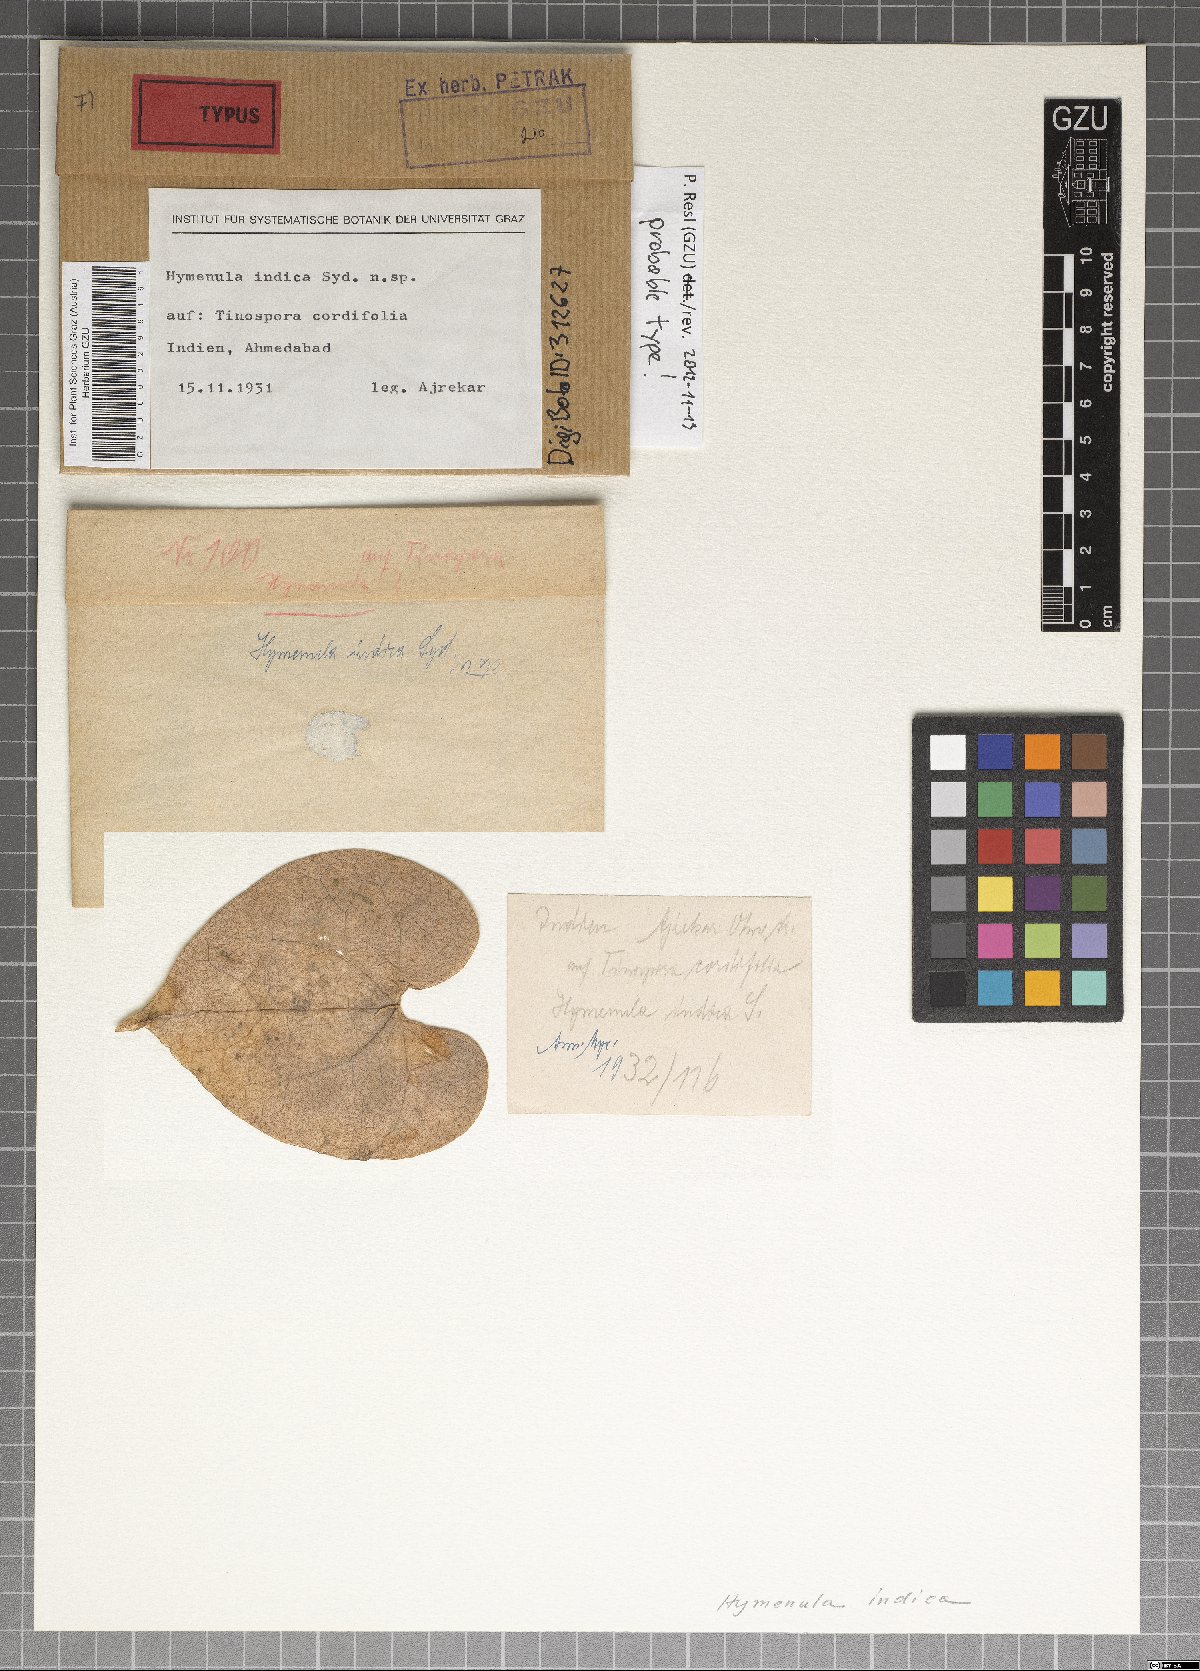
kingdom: Fungi
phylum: Ascomycota
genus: Hymenula
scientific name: Hymenula
